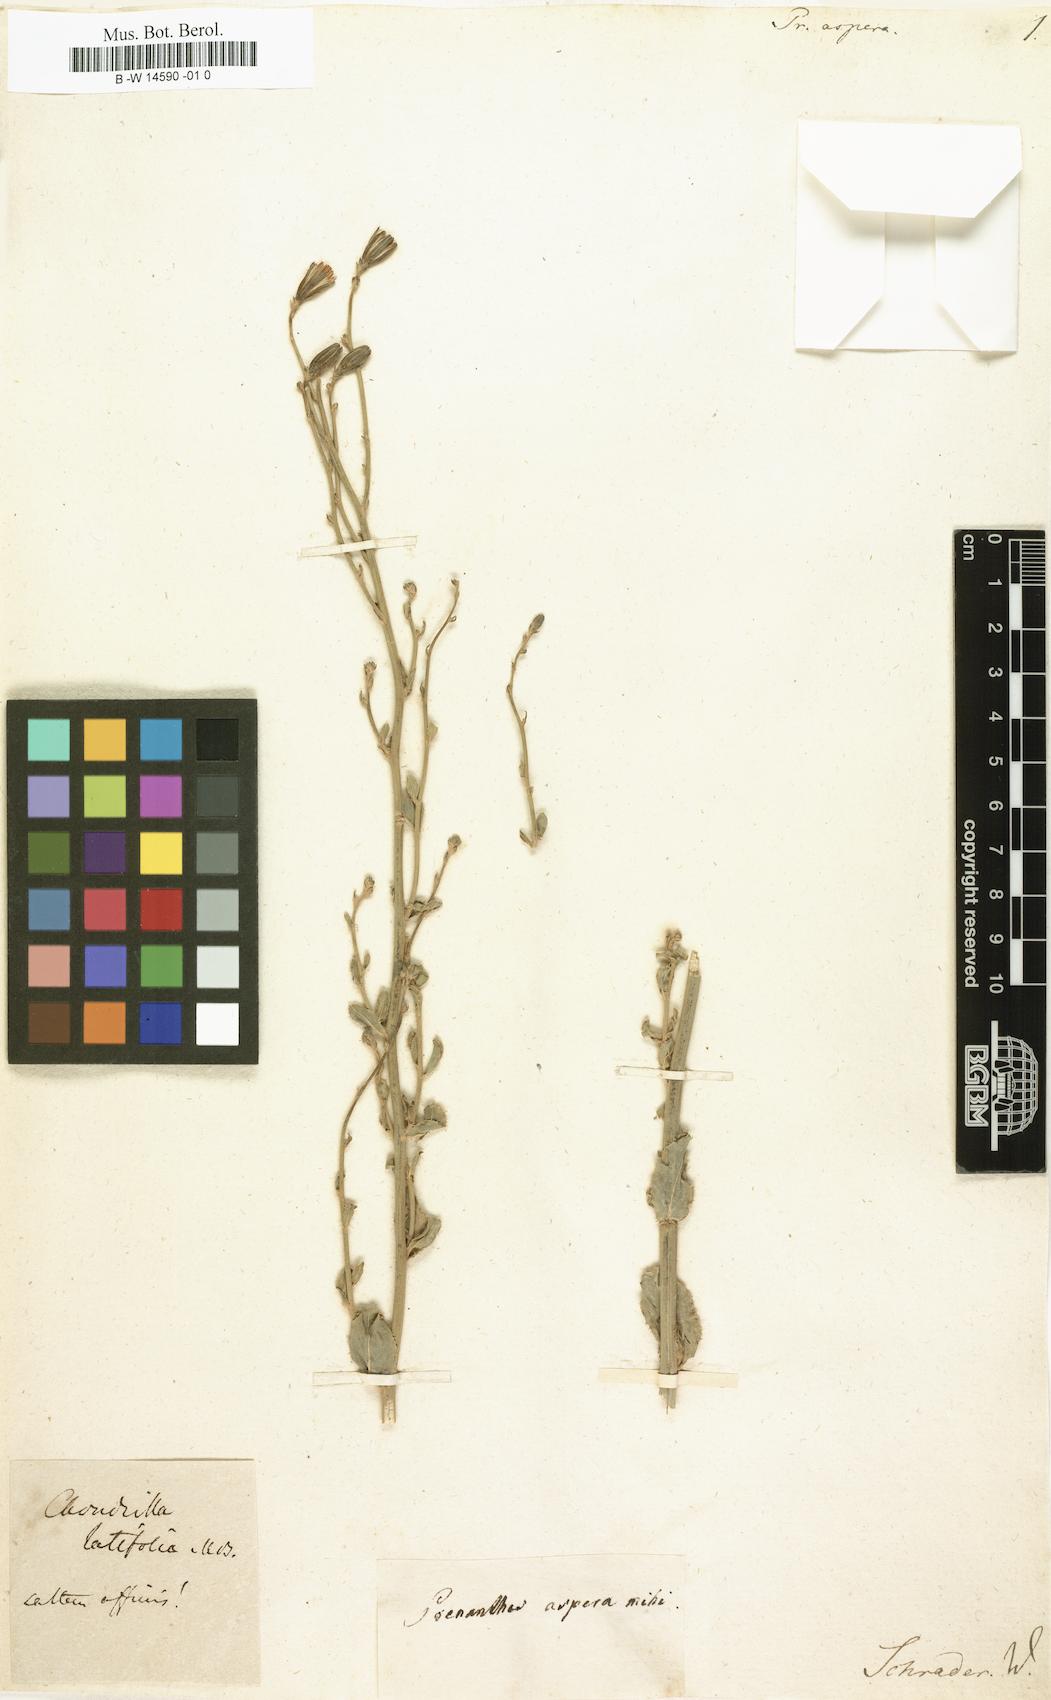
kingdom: Plantae
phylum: Tracheophyta
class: Magnoliopsida
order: Asterales
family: Asteraceae
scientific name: Asteraceae
